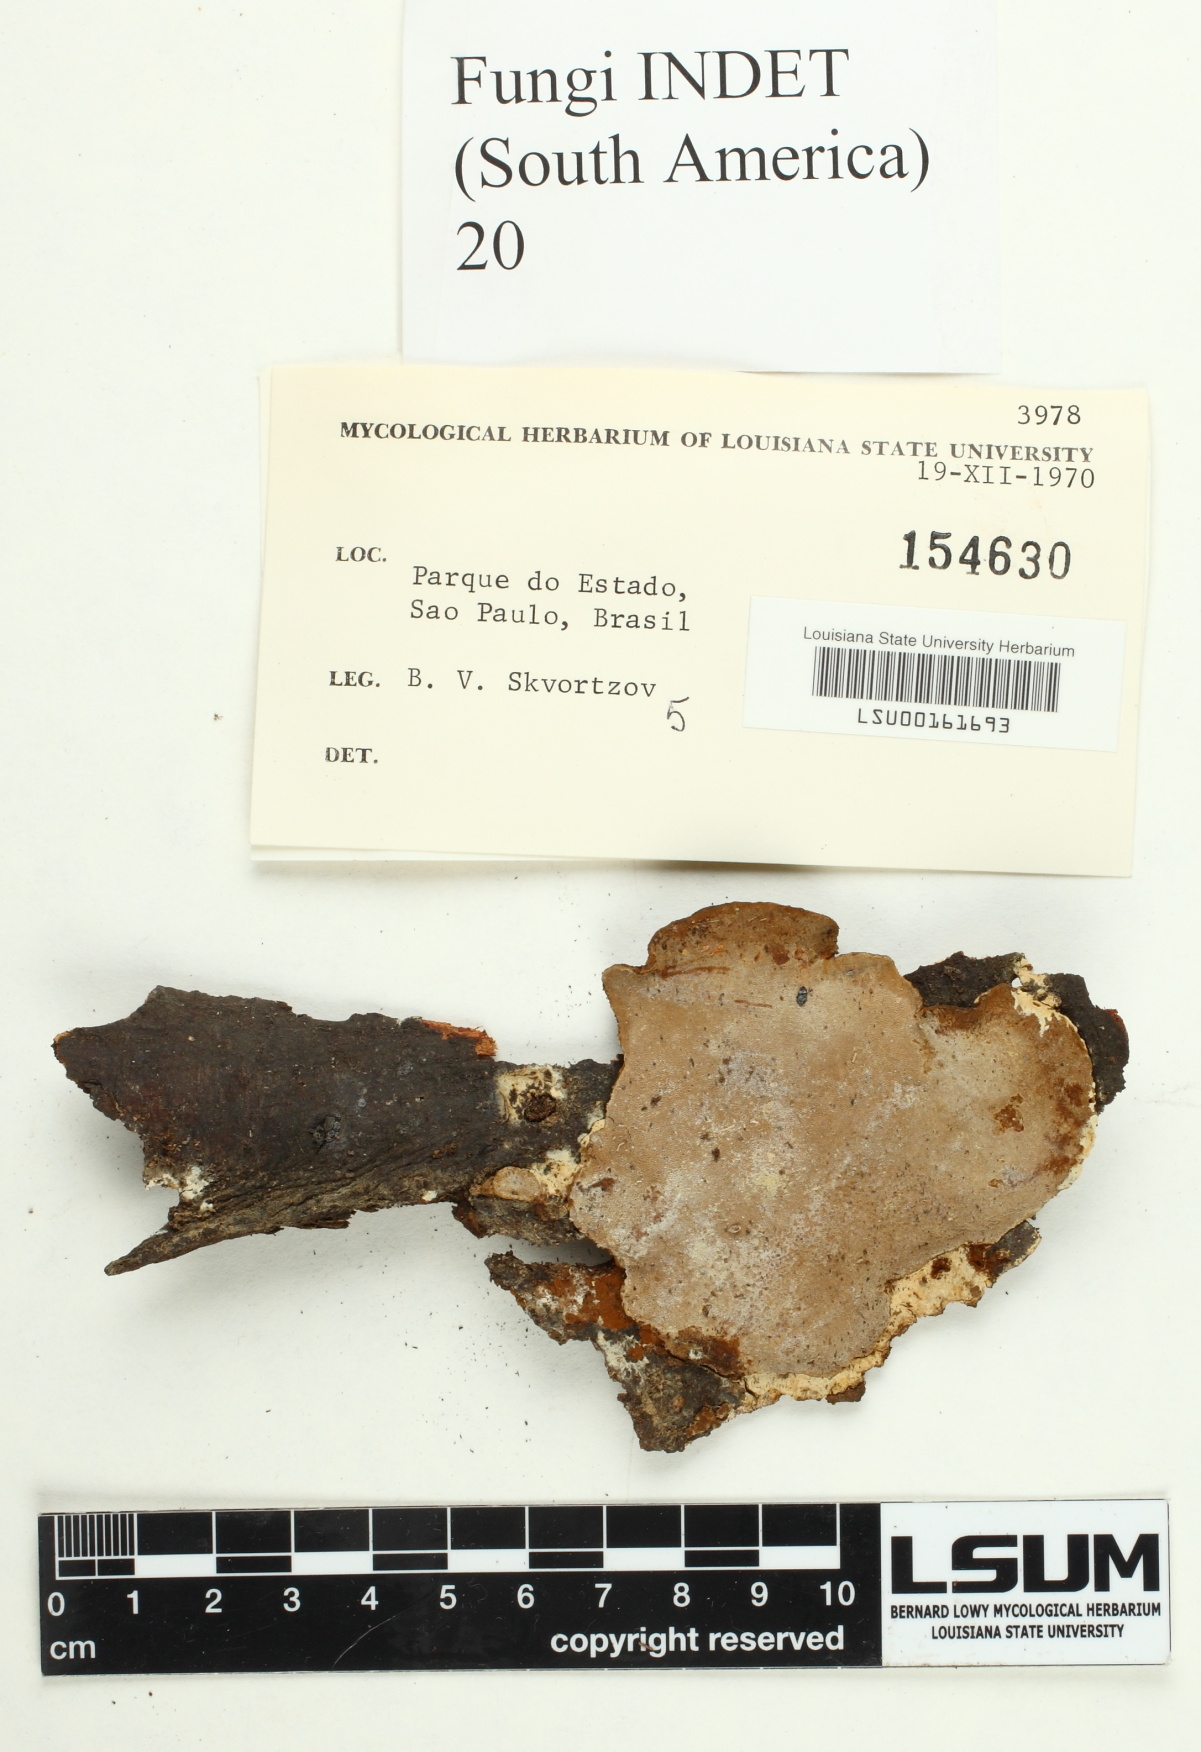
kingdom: Fungi
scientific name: Fungi
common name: Fungi
